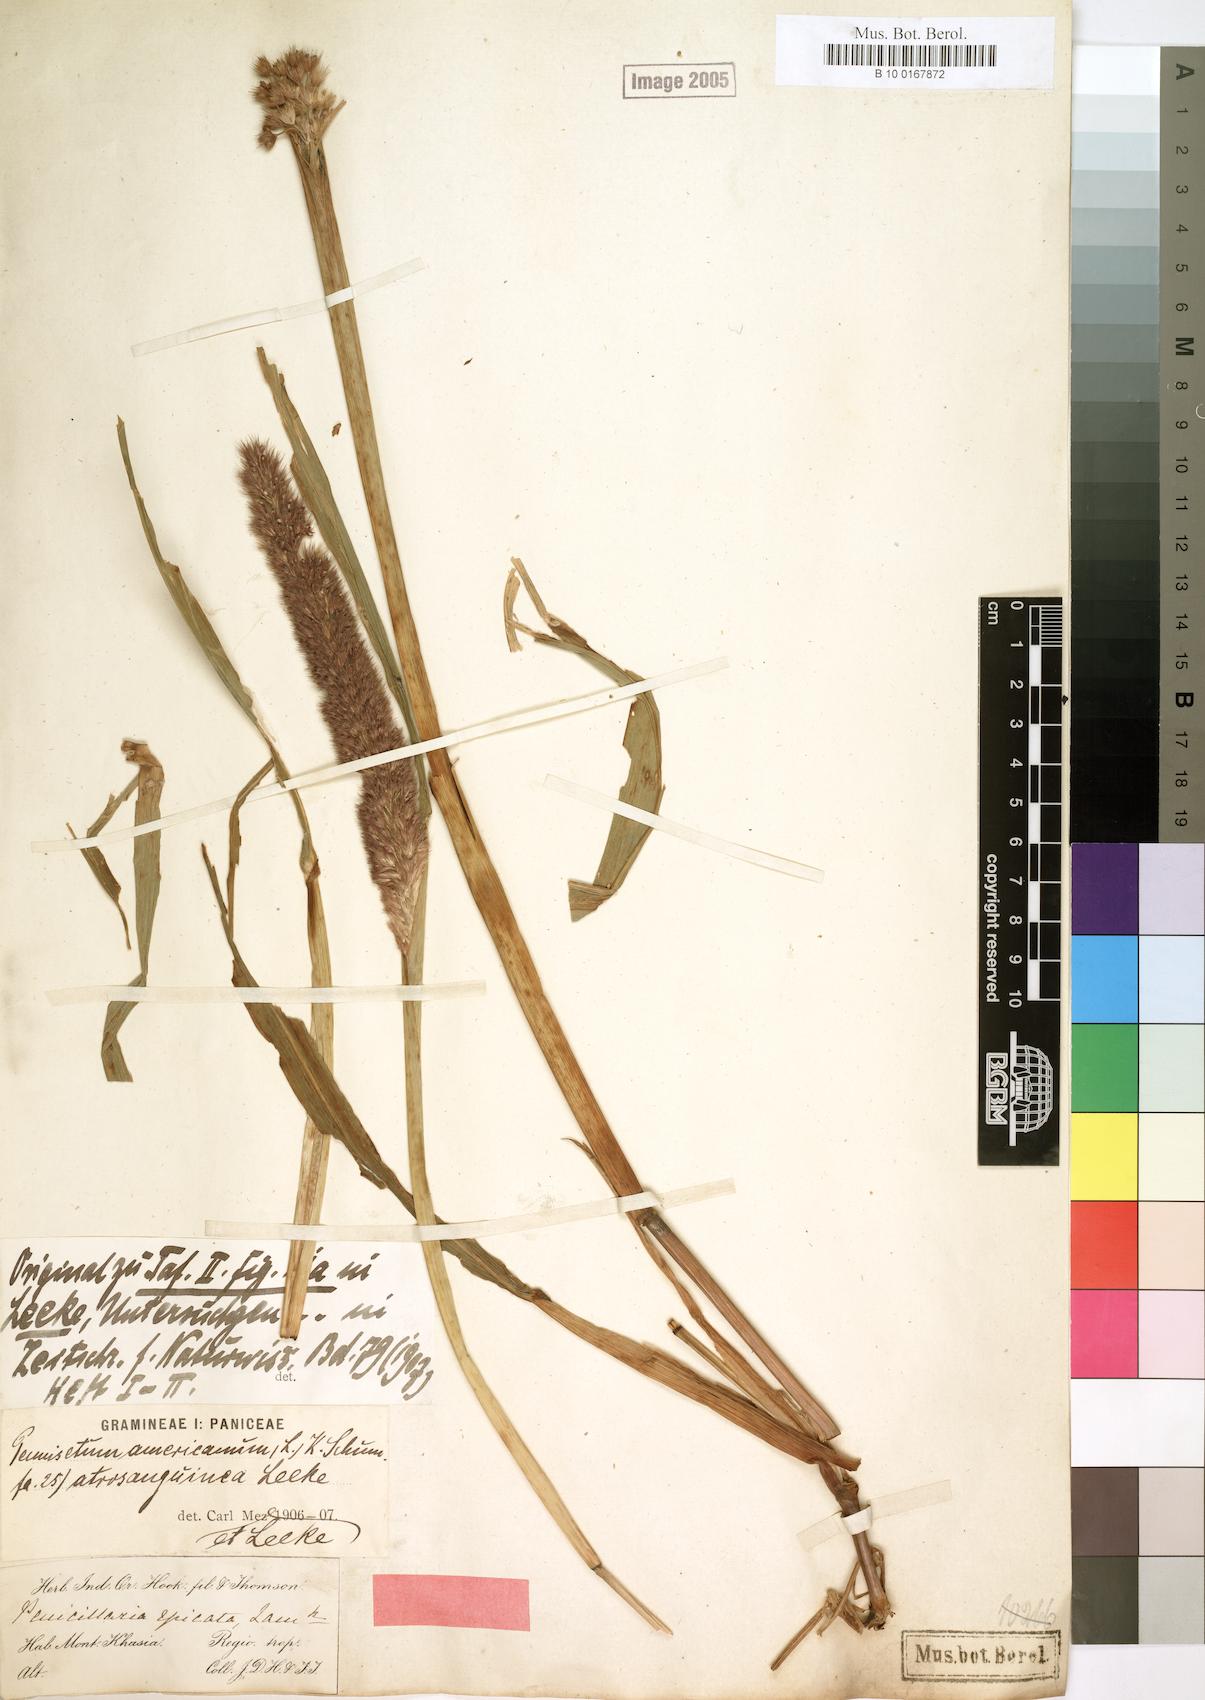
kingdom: Plantae
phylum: Tracheophyta
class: Liliopsida
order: Poales
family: Poaceae
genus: Cenchrus
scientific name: Cenchrus americanus
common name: Pearl millet
